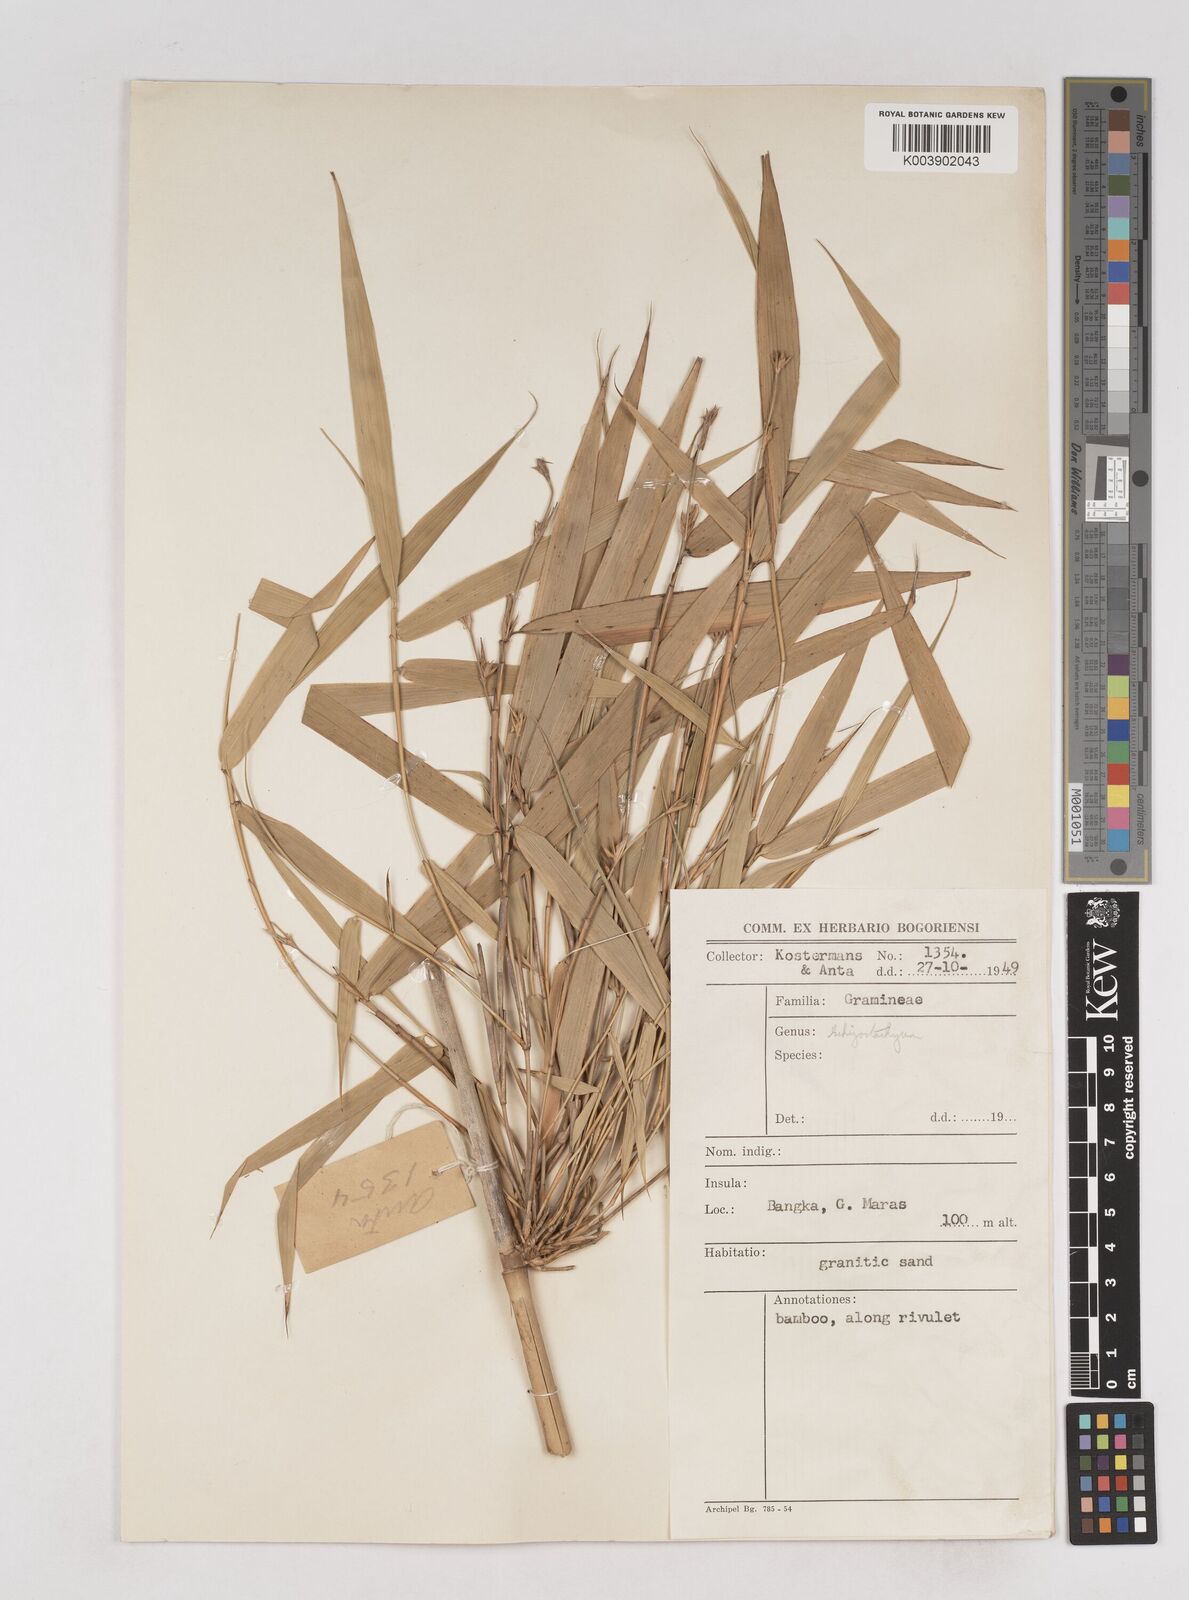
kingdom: Plantae
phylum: Tracheophyta
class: Liliopsida
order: Poales
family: Poaceae
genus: Schizostachyum
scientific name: Schizostachyum gracile
